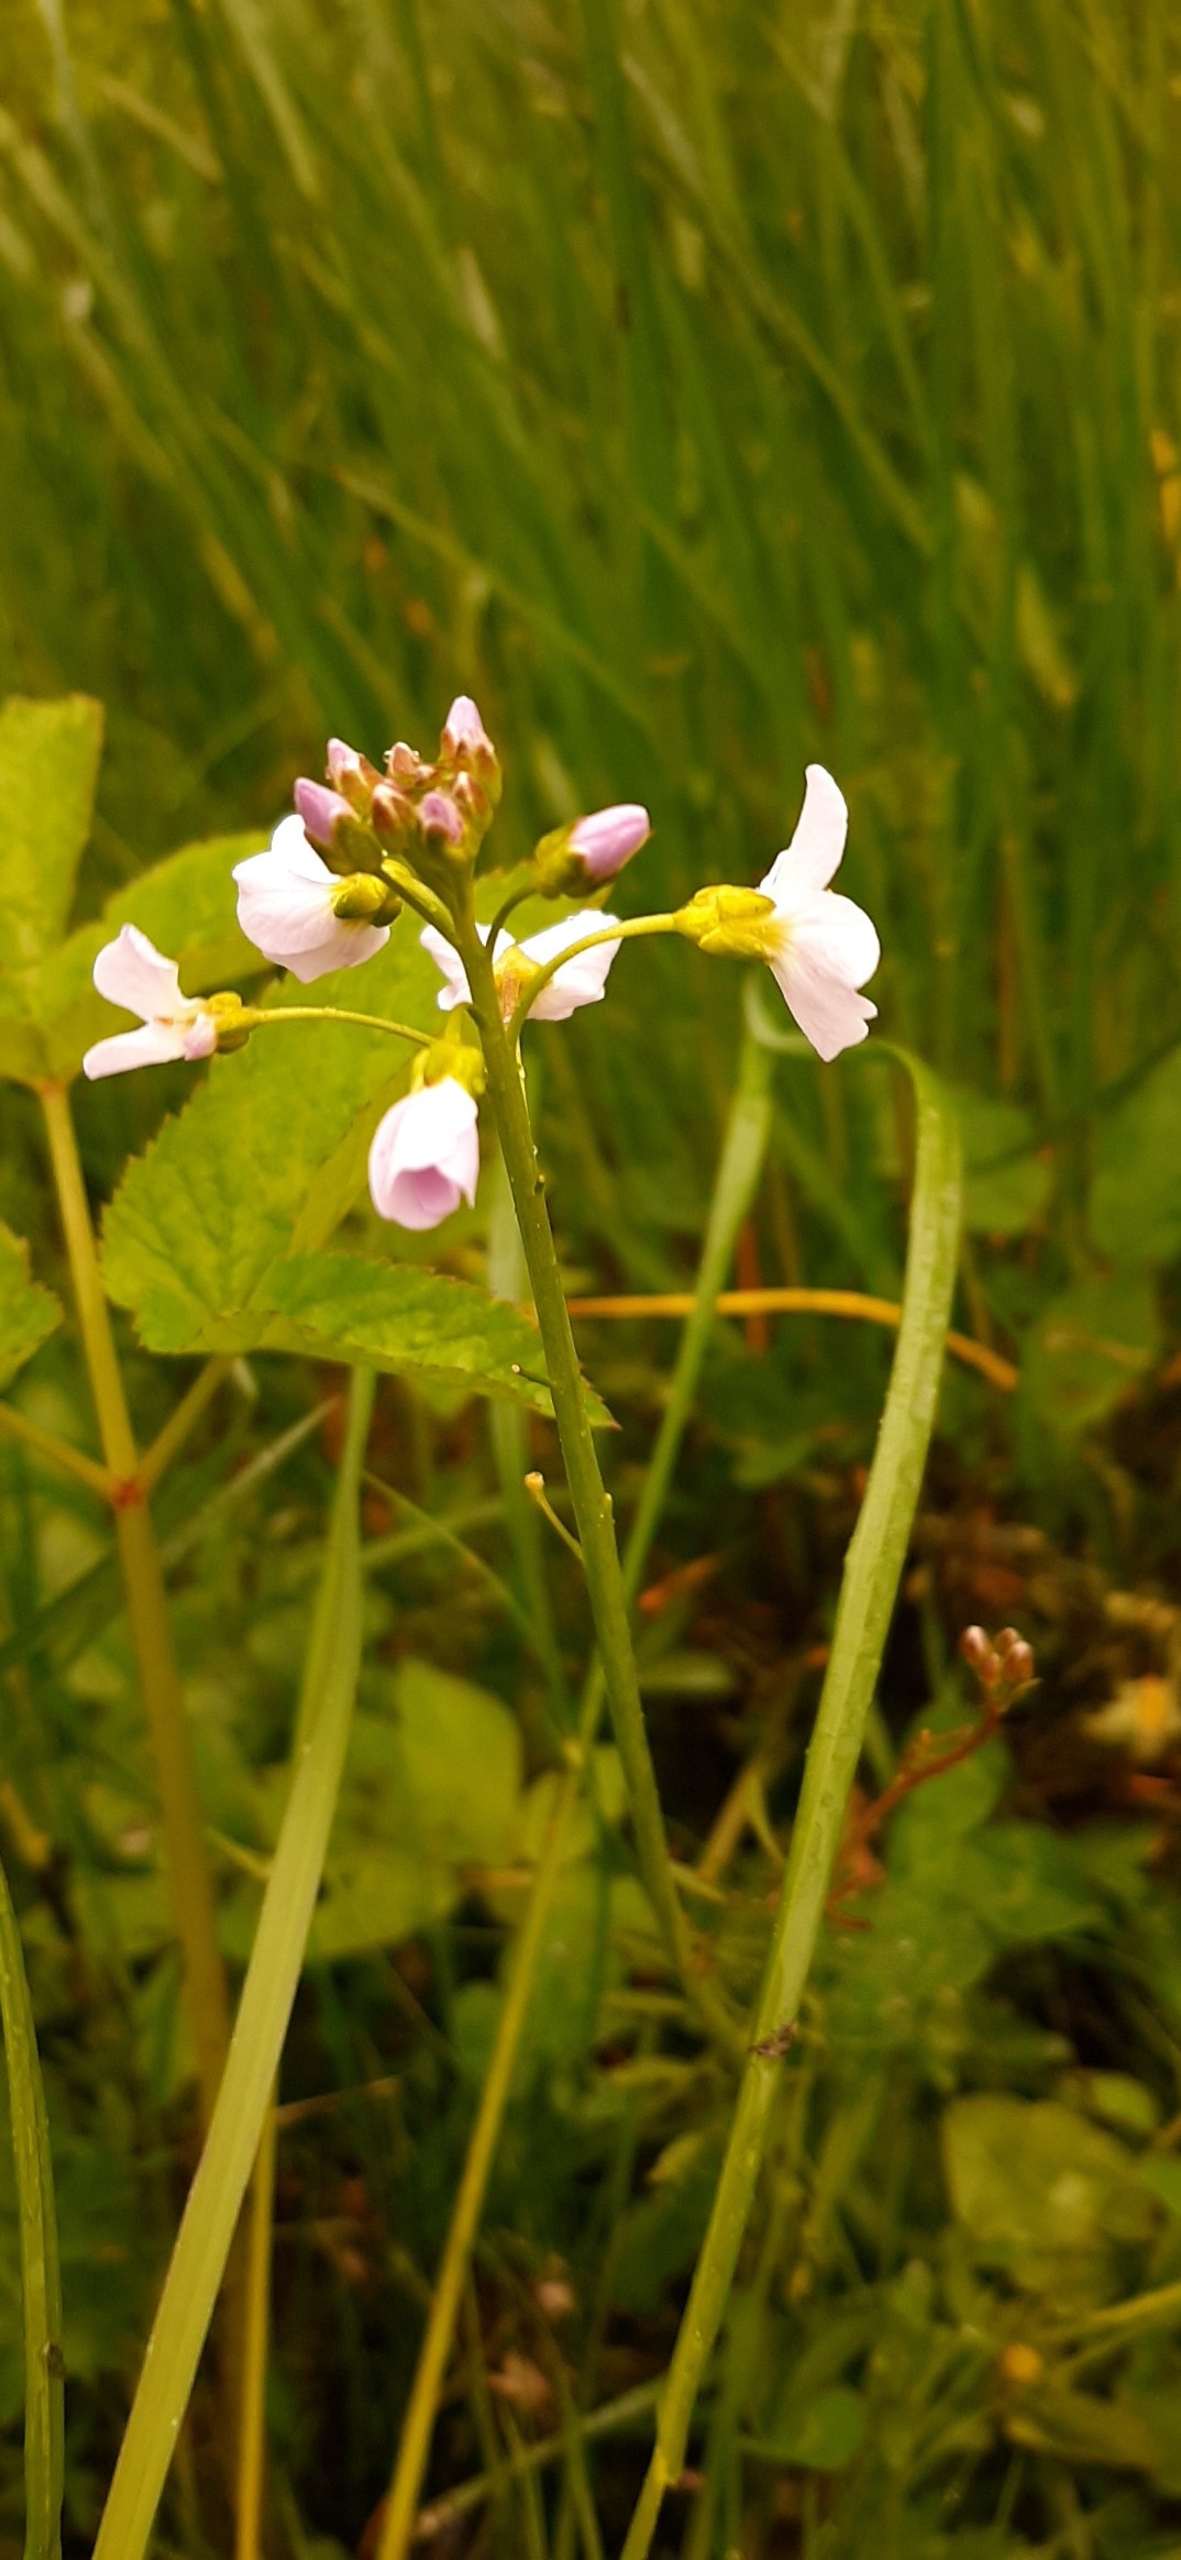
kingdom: Plantae
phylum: Tracheophyta
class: Magnoliopsida
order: Brassicales
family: Brassicaceae
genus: Cardamine
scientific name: Cardamine pratensis
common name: Engkarse
